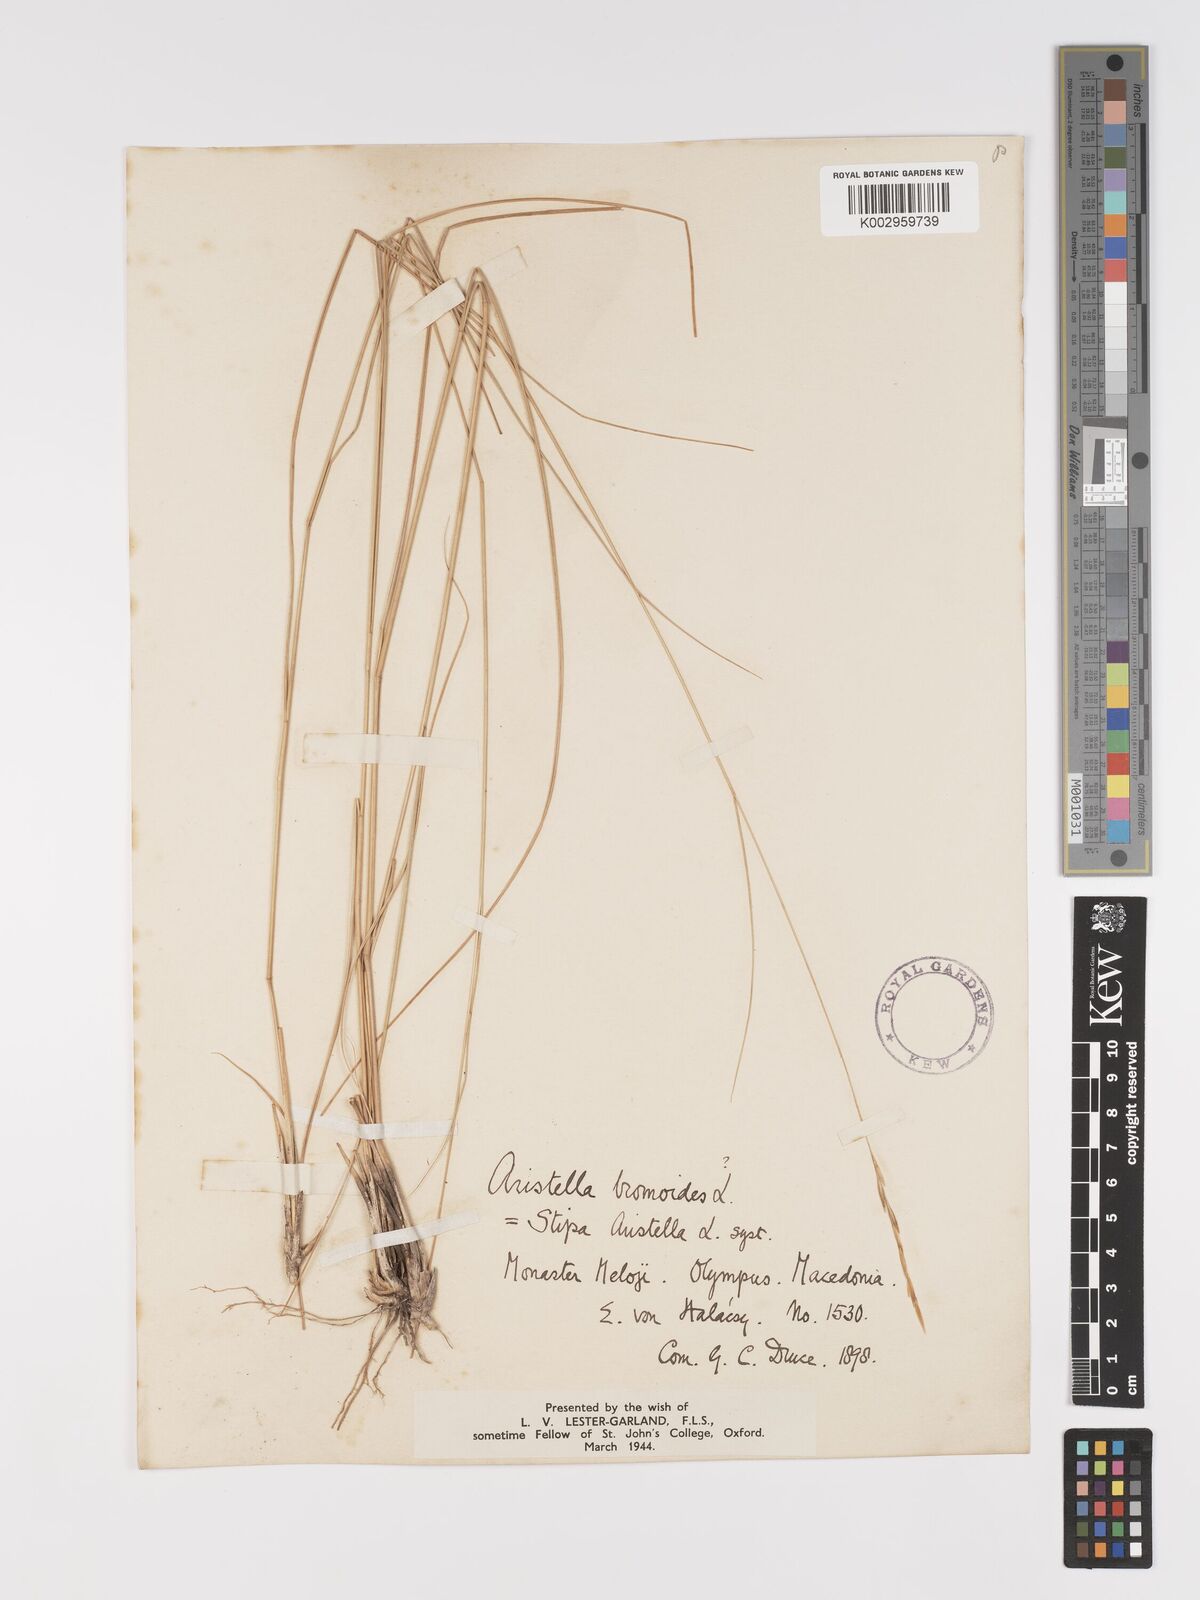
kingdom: Plantae
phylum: Tracheophyta
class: Liliopsida
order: Poales
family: Poaceae
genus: Achnatherum
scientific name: Achnatherum bromoides
